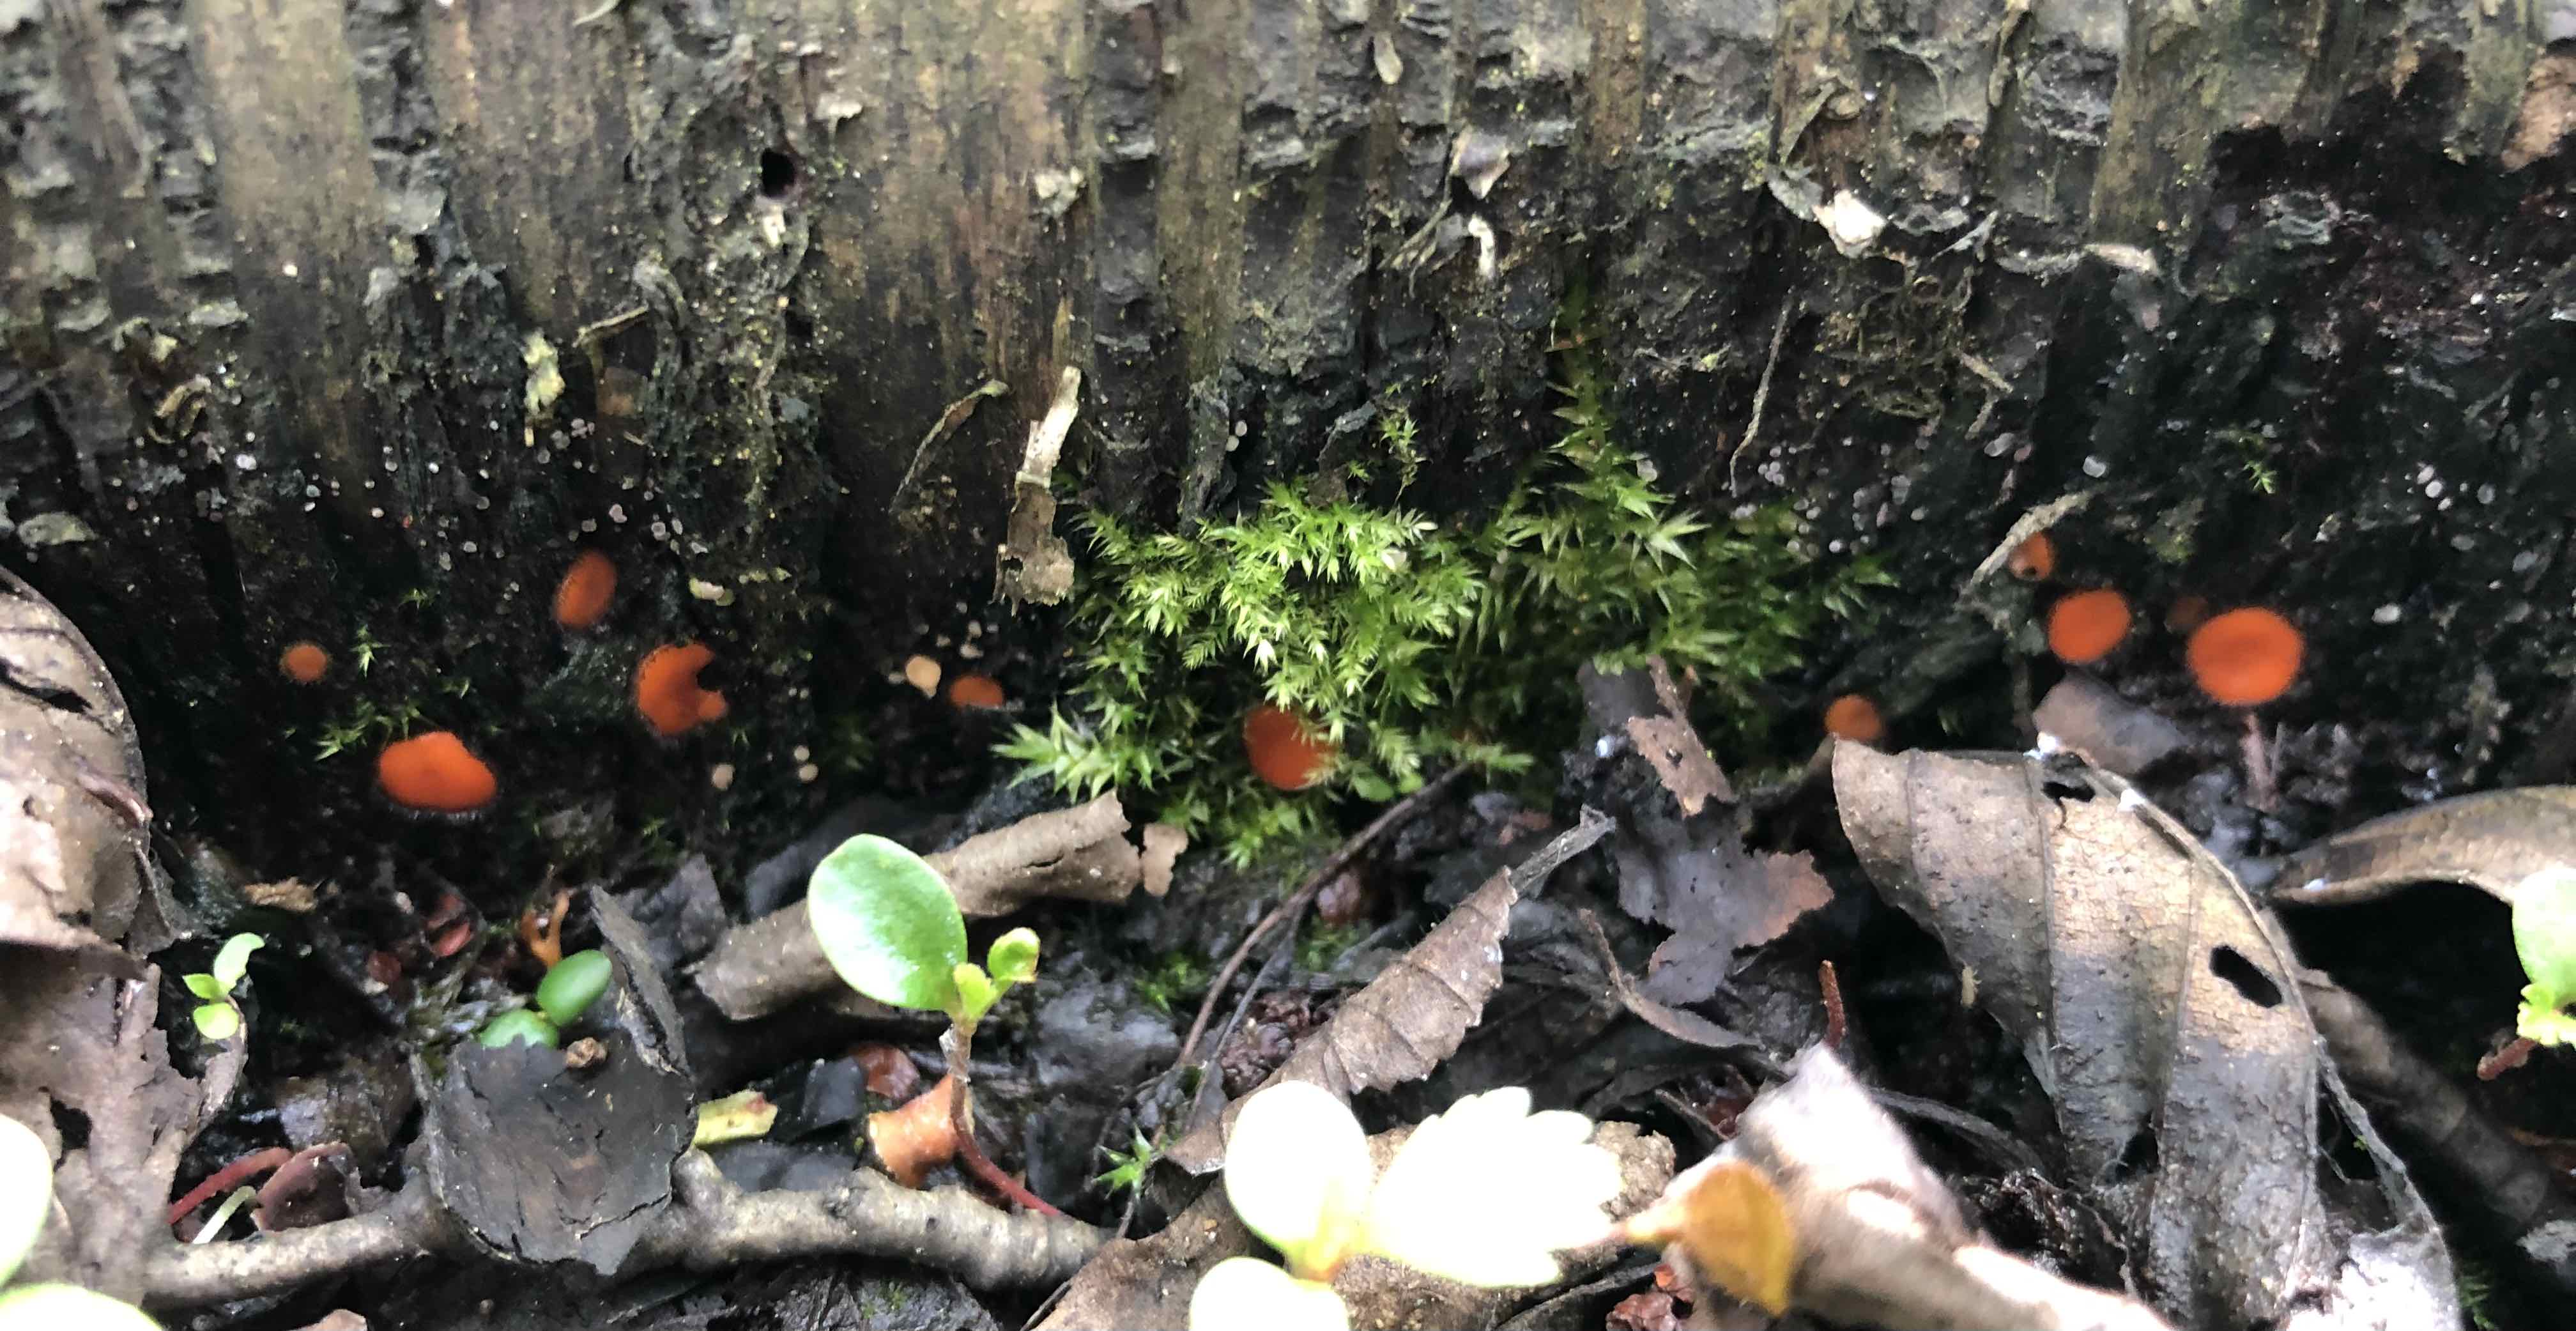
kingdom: Fungi
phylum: Ascomycota
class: Pezizomycetes
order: Pezizales
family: Pyronemataceae
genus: Scutellinia
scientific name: Scutellinia
